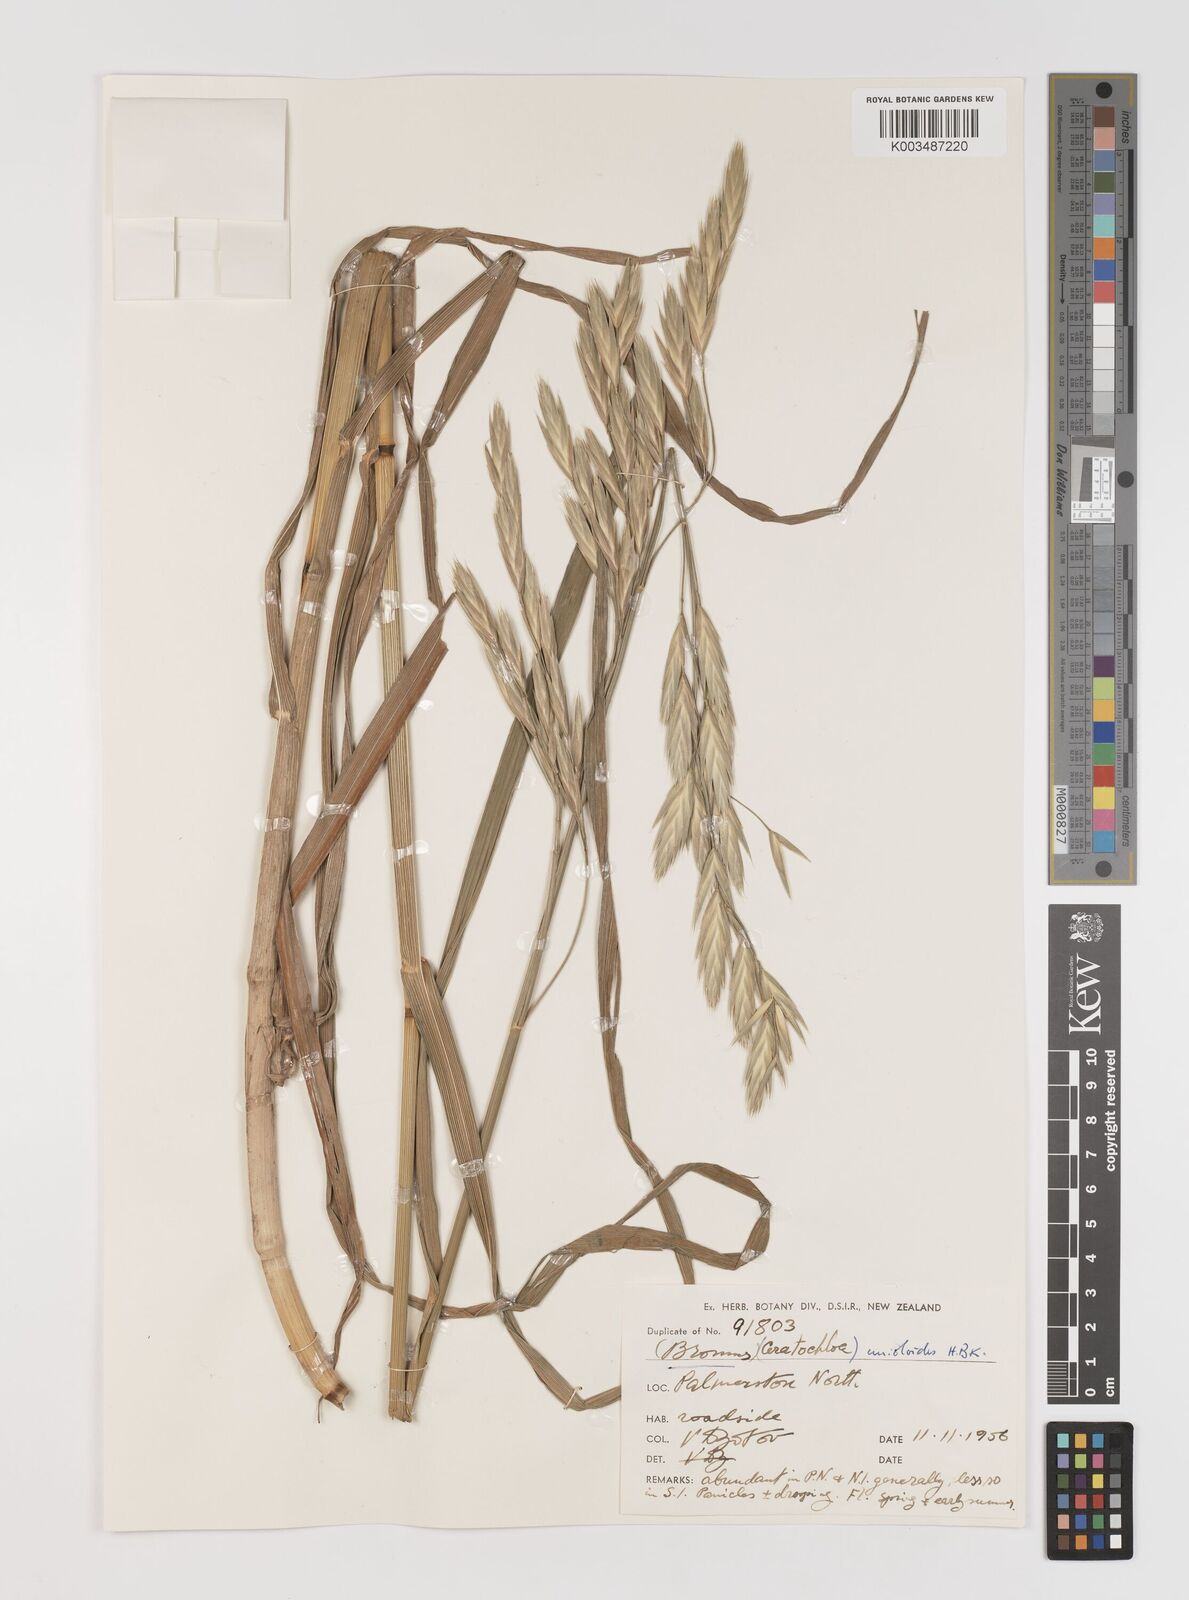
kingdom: Plantae
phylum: Tracheophyta
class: Liliopsida
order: Poales
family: Poaceae
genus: Bromus
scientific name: Bromus catharticus
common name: Rescuegrass
